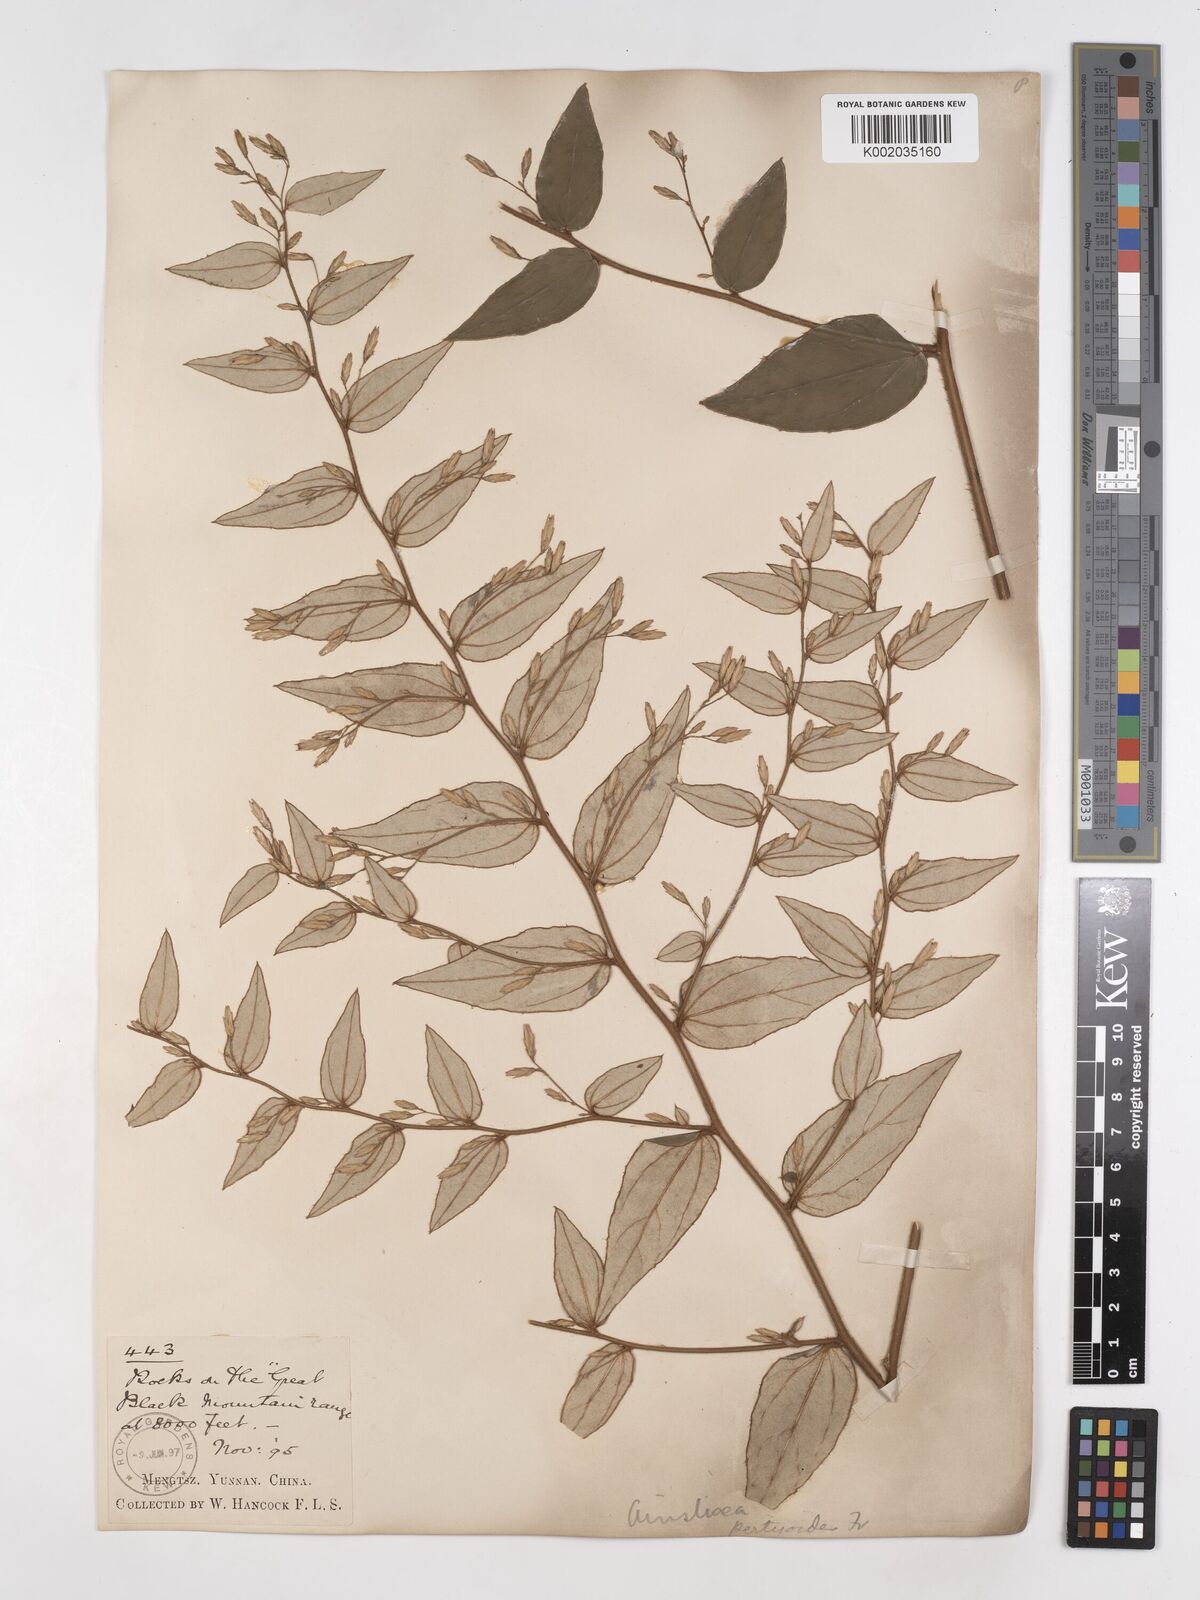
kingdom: Plantae
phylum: Tracheophyta
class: Magnoliopsida
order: Asterales
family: Asteraceae
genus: Ainsliaea
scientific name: Ainsliaea pertyoides
